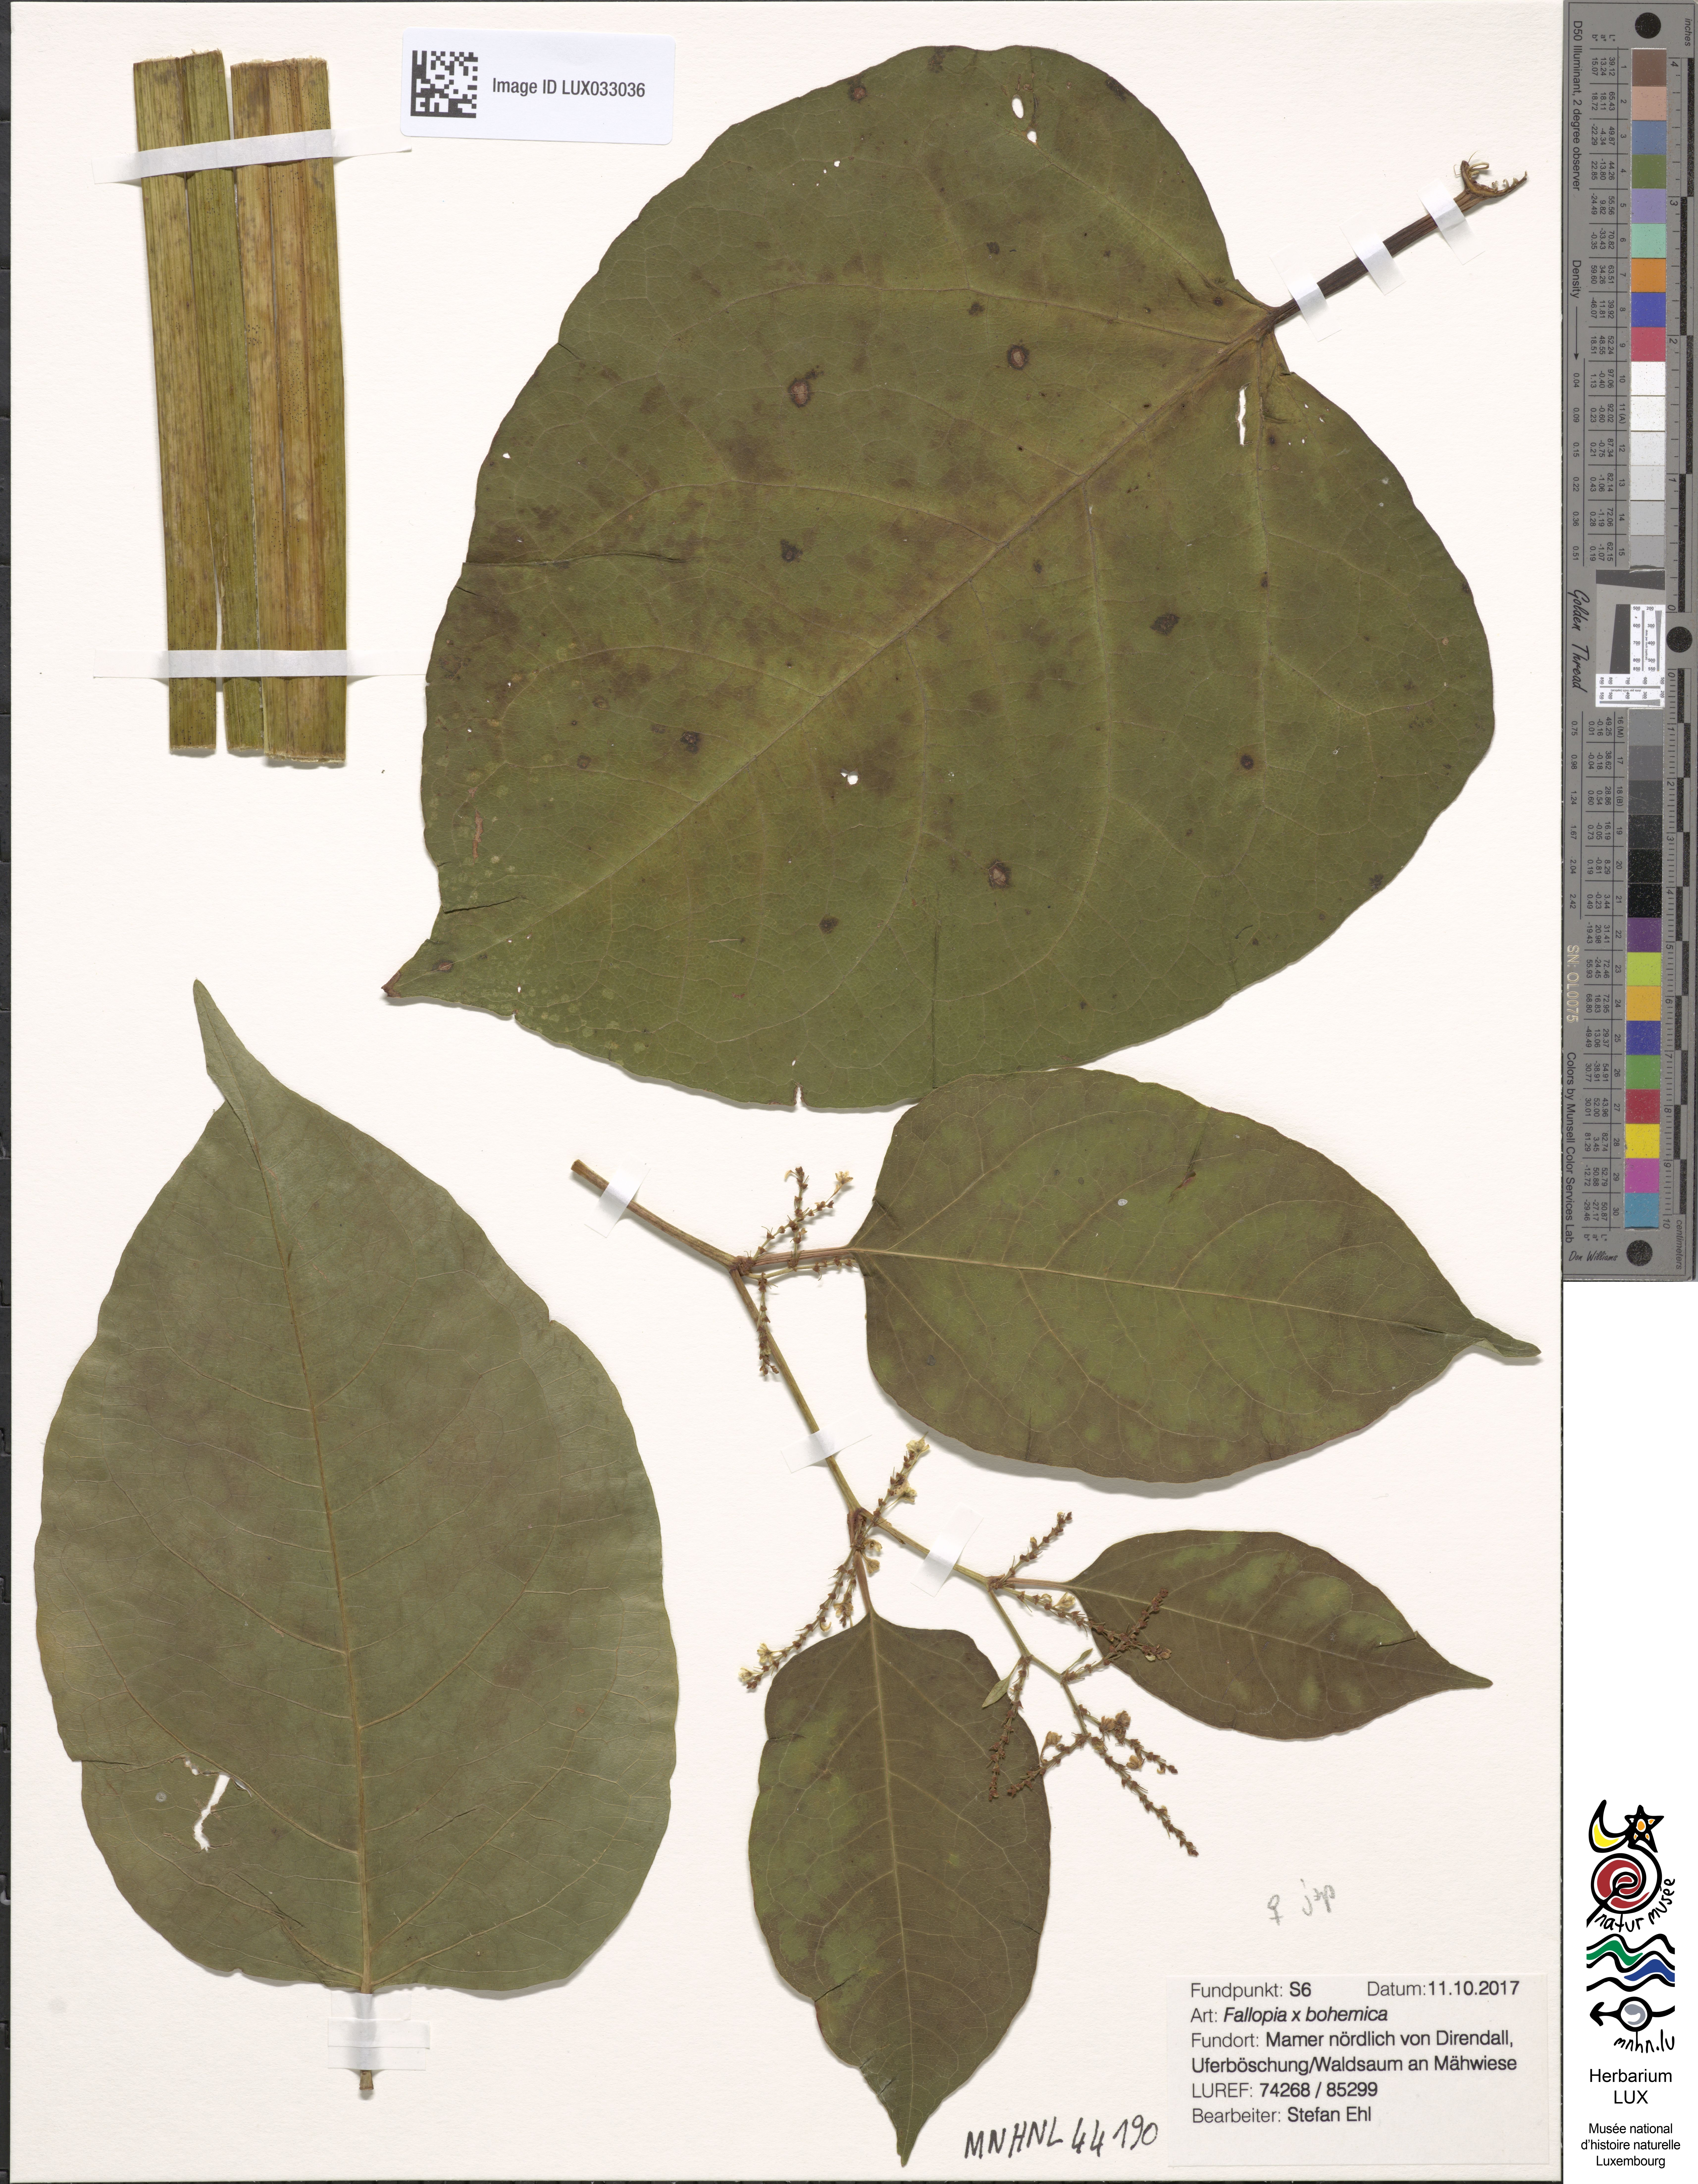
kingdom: Plantae
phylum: Tracheophyta
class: Magnoliopsida
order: Caryophyllales
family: Polygonaceae
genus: Reynoutria
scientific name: Reynoutria bohemica
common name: Bohemian knotweed
